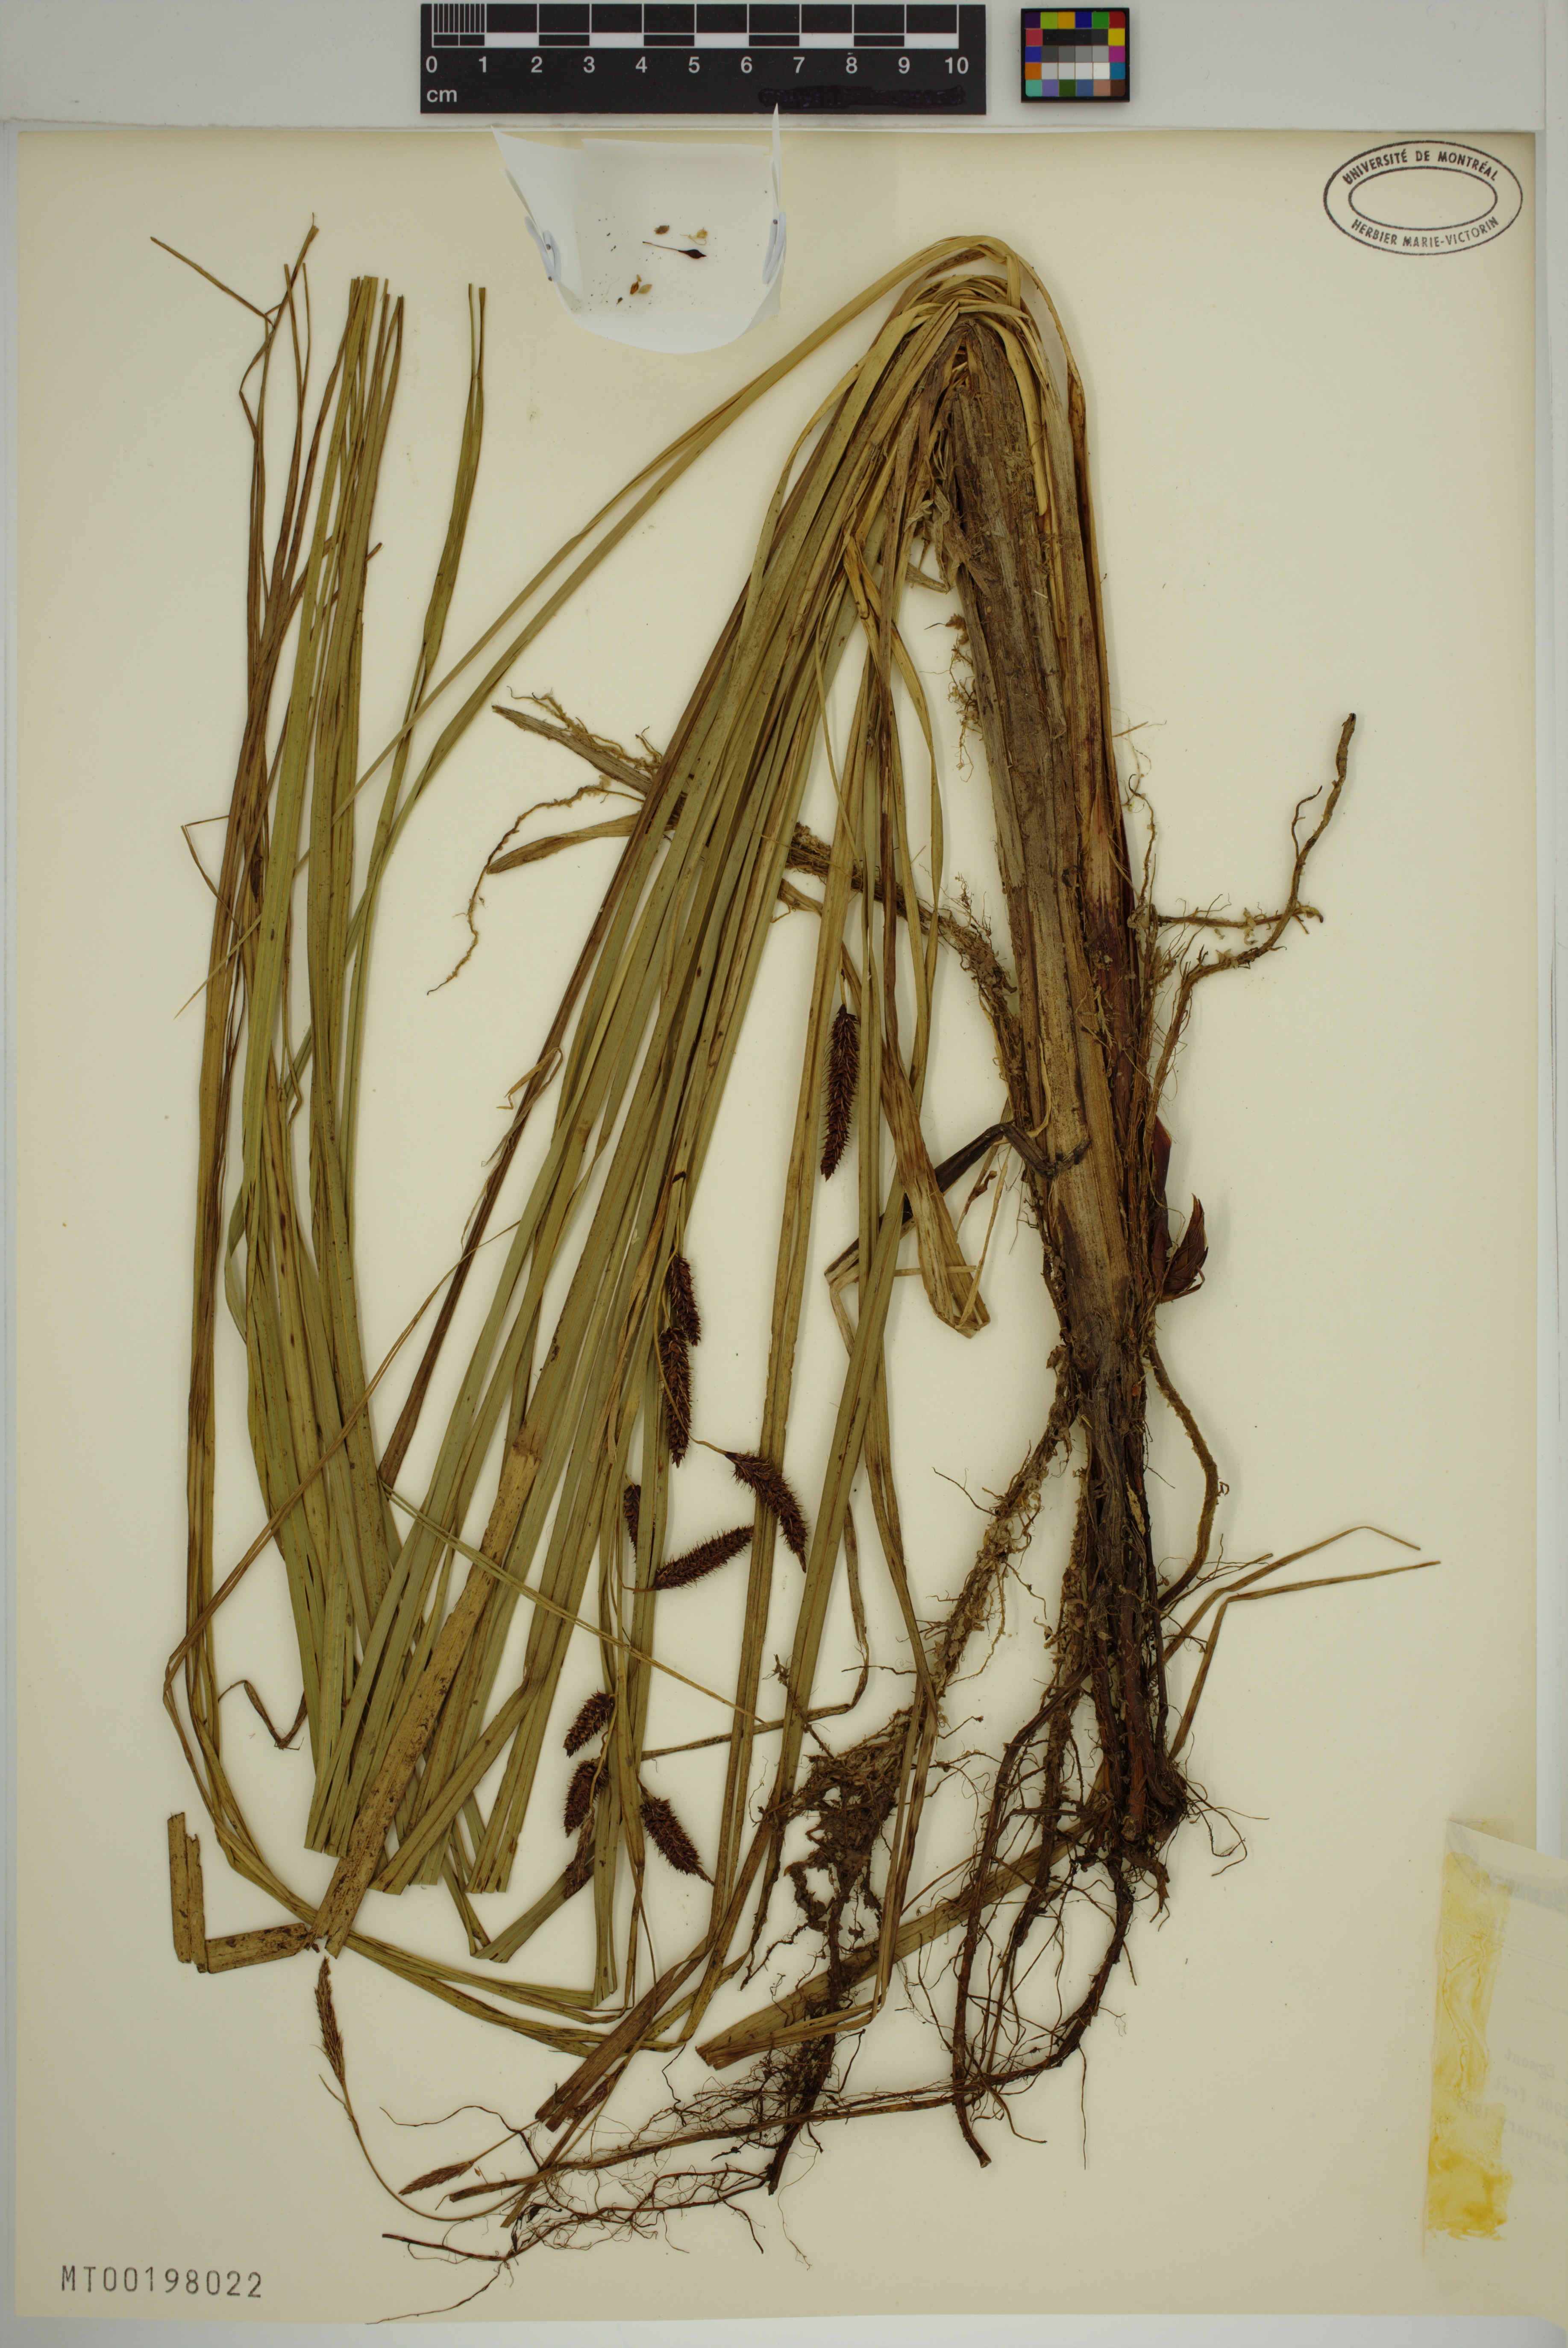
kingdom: Plantae
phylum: Tracheophyta
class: Liliopsida
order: Poales
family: Cyperaceae
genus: Carex
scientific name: Carex coriacea
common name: Rautahi
